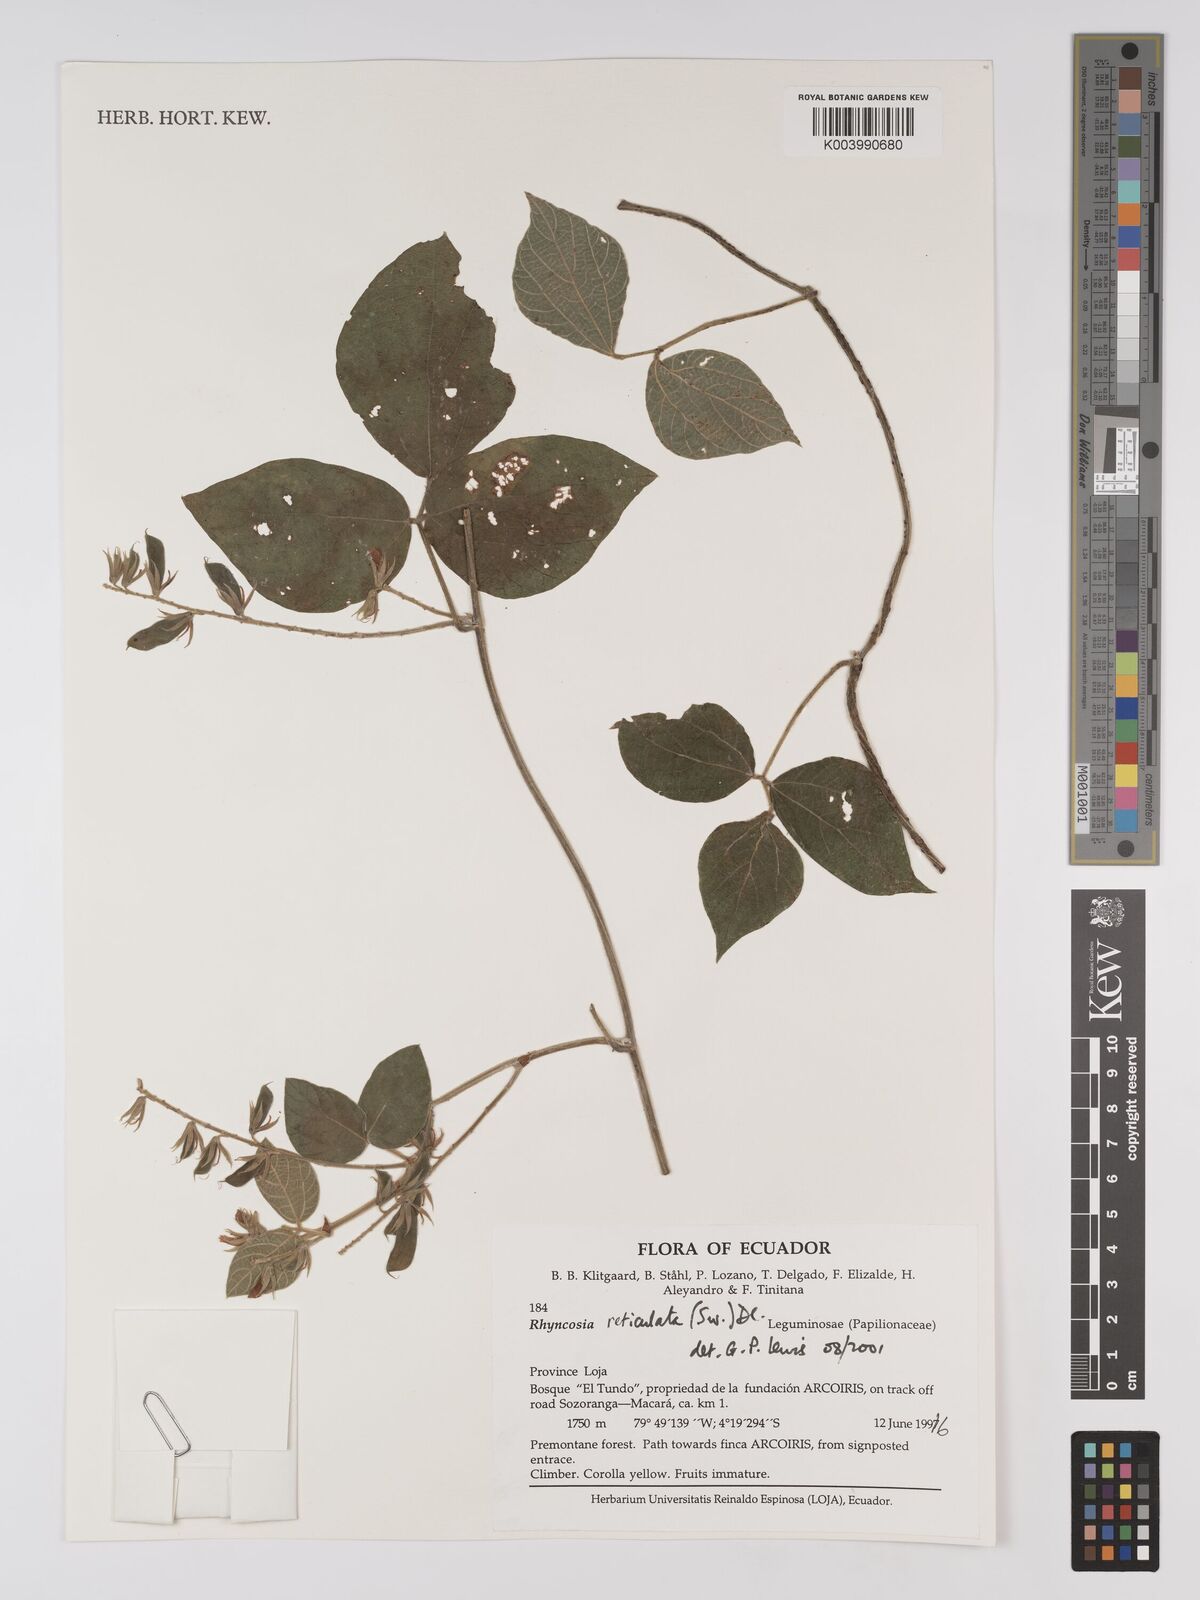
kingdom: Plantae
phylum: Tracheophyta
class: Magnoliopsida
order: Fabales
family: Fabaceae
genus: Rhynchosia
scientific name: Rhynchosia reticulata
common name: Pea withe
